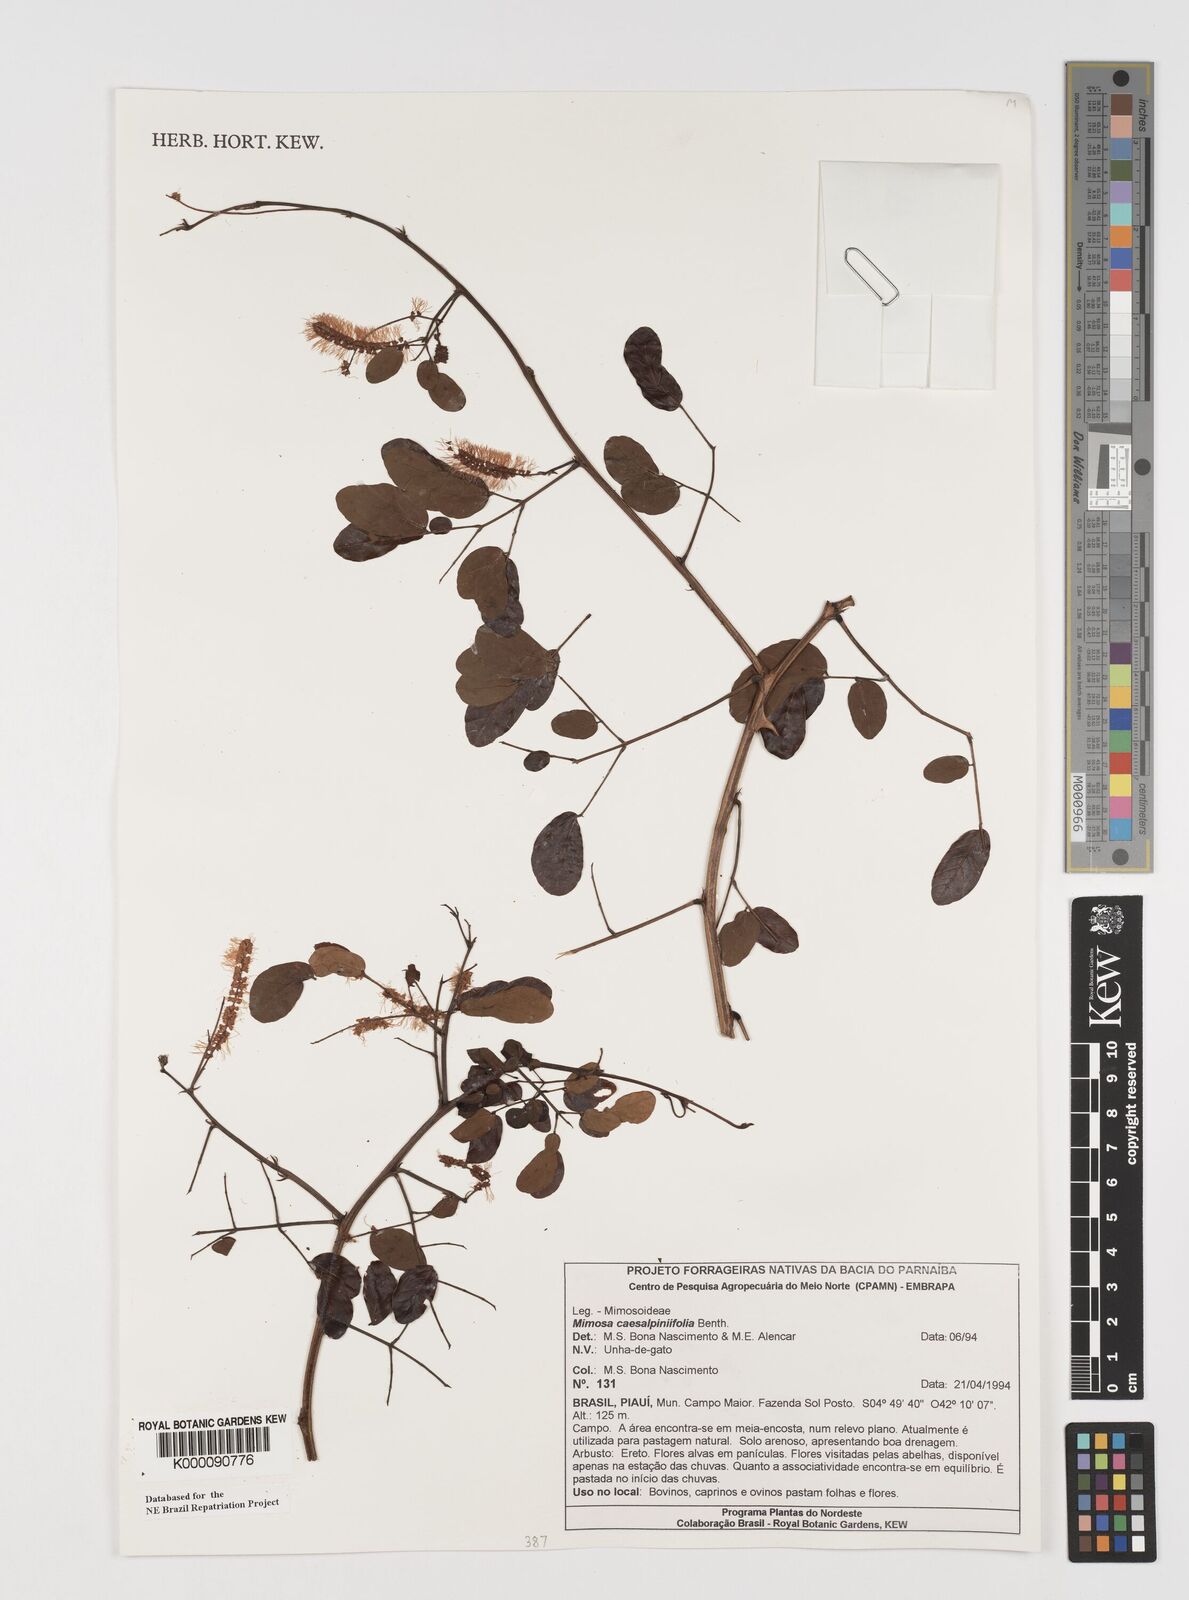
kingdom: Plantae
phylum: Tracheophyta
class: Magnoliopsida
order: Fabales
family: Fabaceae
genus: Mimosa
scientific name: Mimosa caesalpiniifolia
